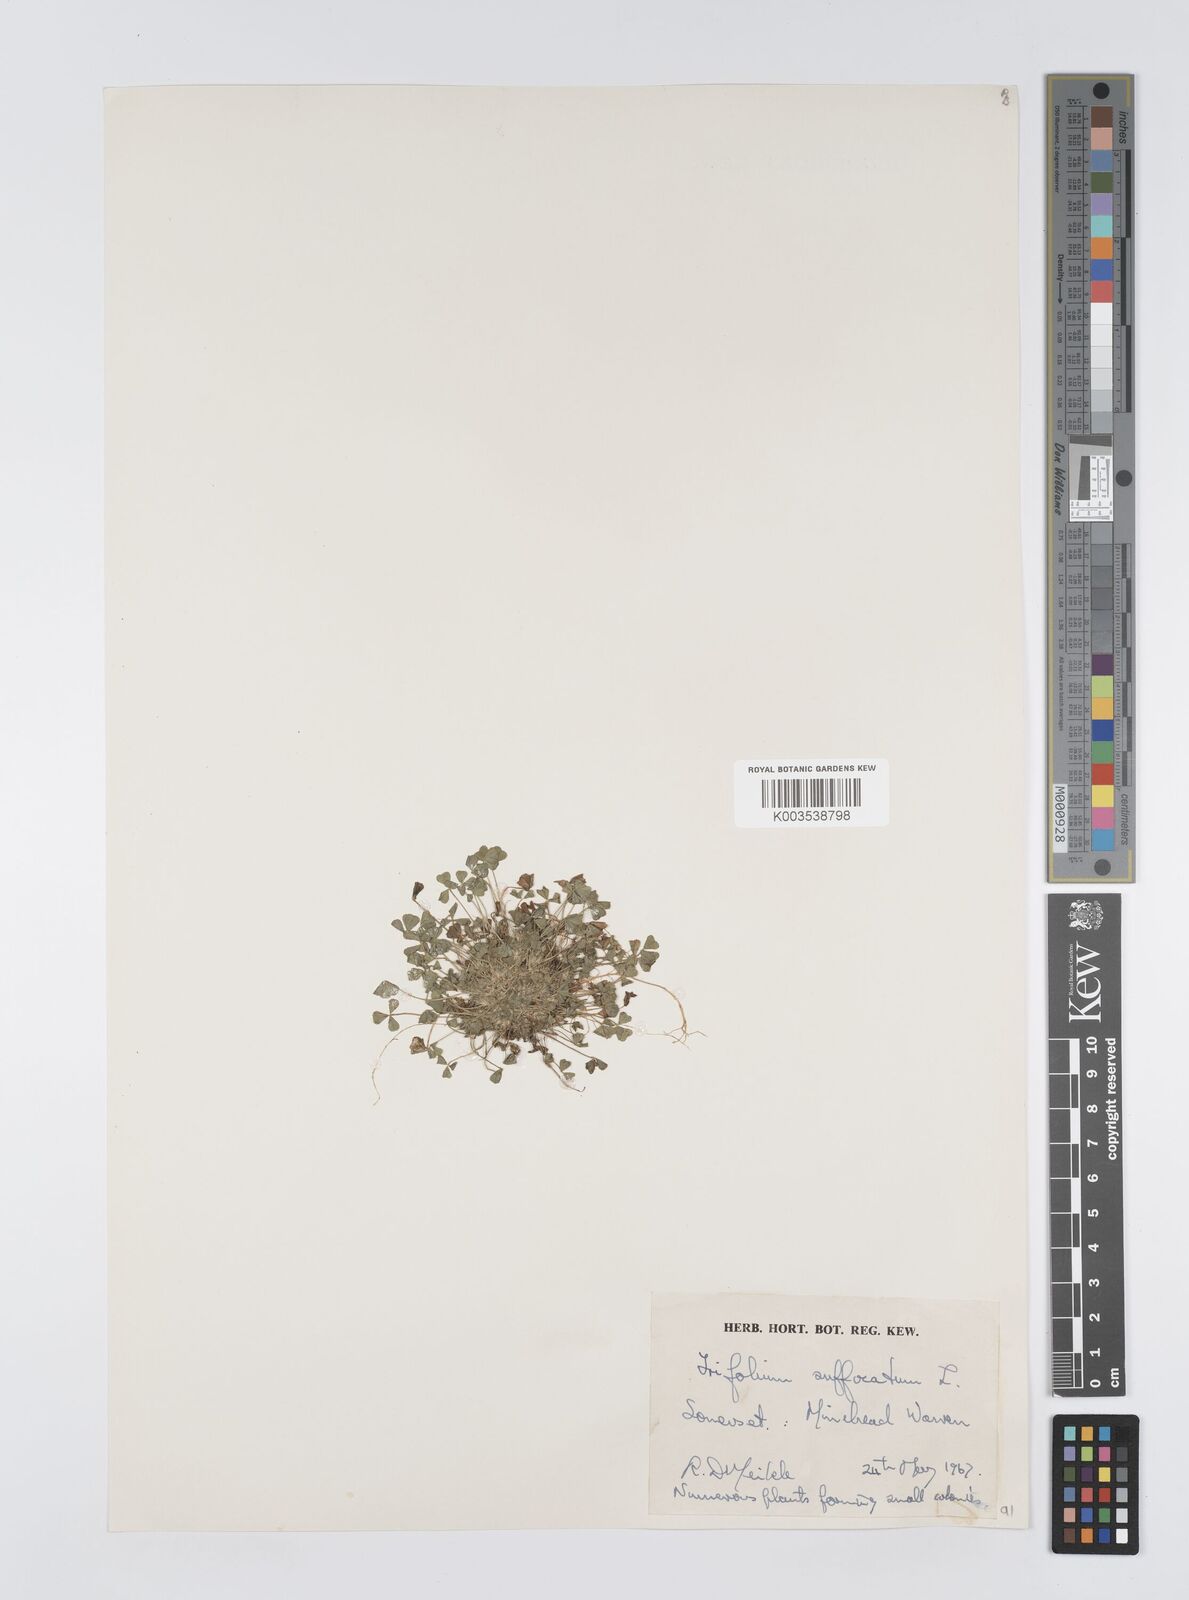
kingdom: Plantae
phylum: Tracheophyta
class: Magnoliopsida
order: Fabales
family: Fabaceae
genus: Trifolium
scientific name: Trifolium suffocatum
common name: Suffocated clover
